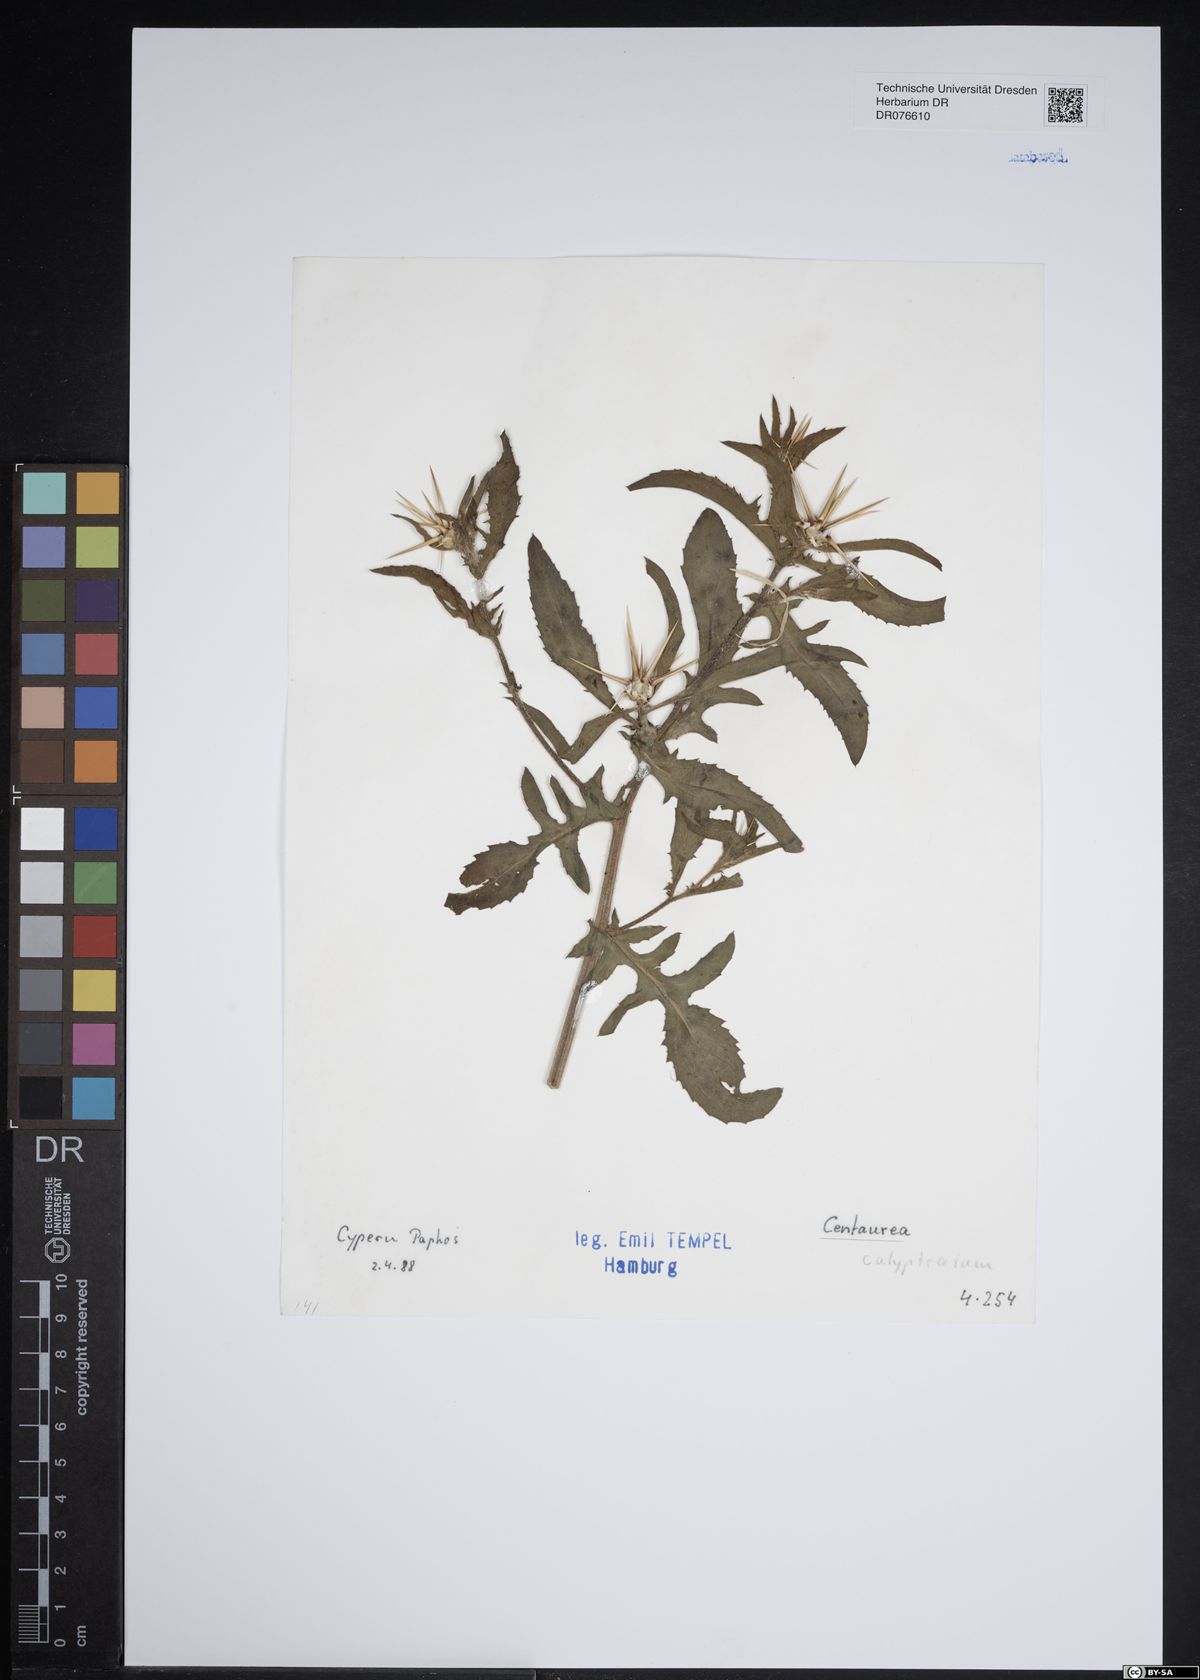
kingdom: Plantae
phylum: Tracheophyta
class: Magnoliopsida
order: Asterales
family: Asteraceae
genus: Centaurea
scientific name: Centaurea
